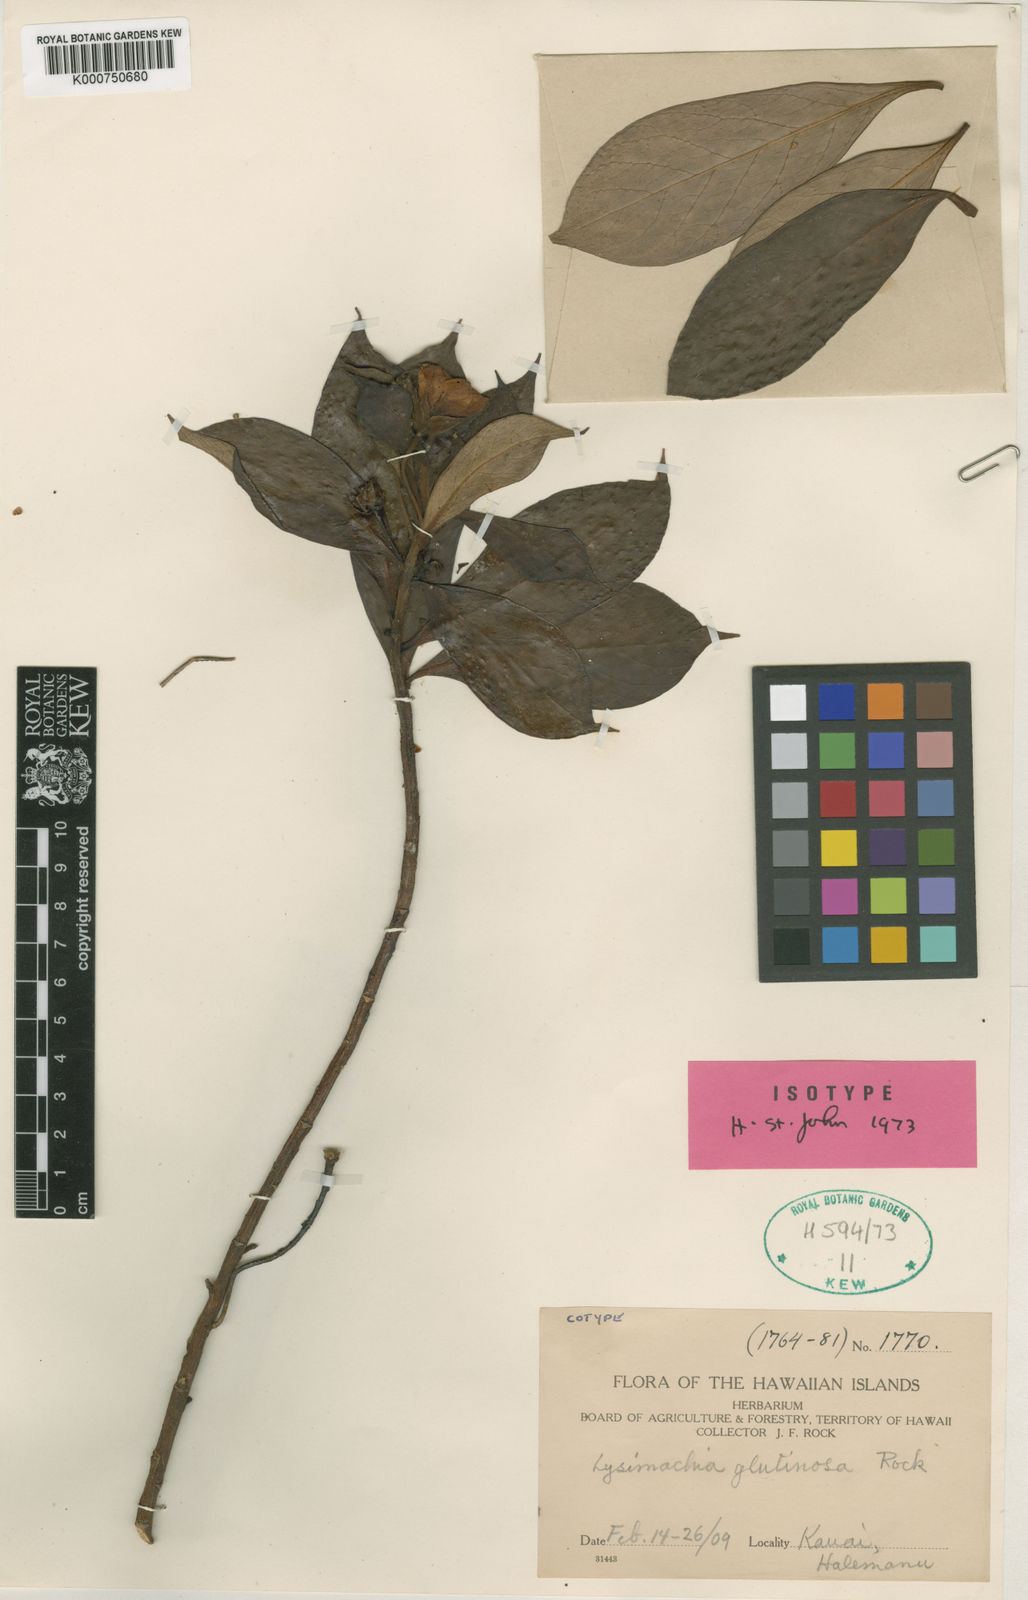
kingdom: Plantae
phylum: Tracheophyta
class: Magnoliopsida
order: Ericales
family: Primulaceae
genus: Lysimachia
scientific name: Lysimachia glutinosa
